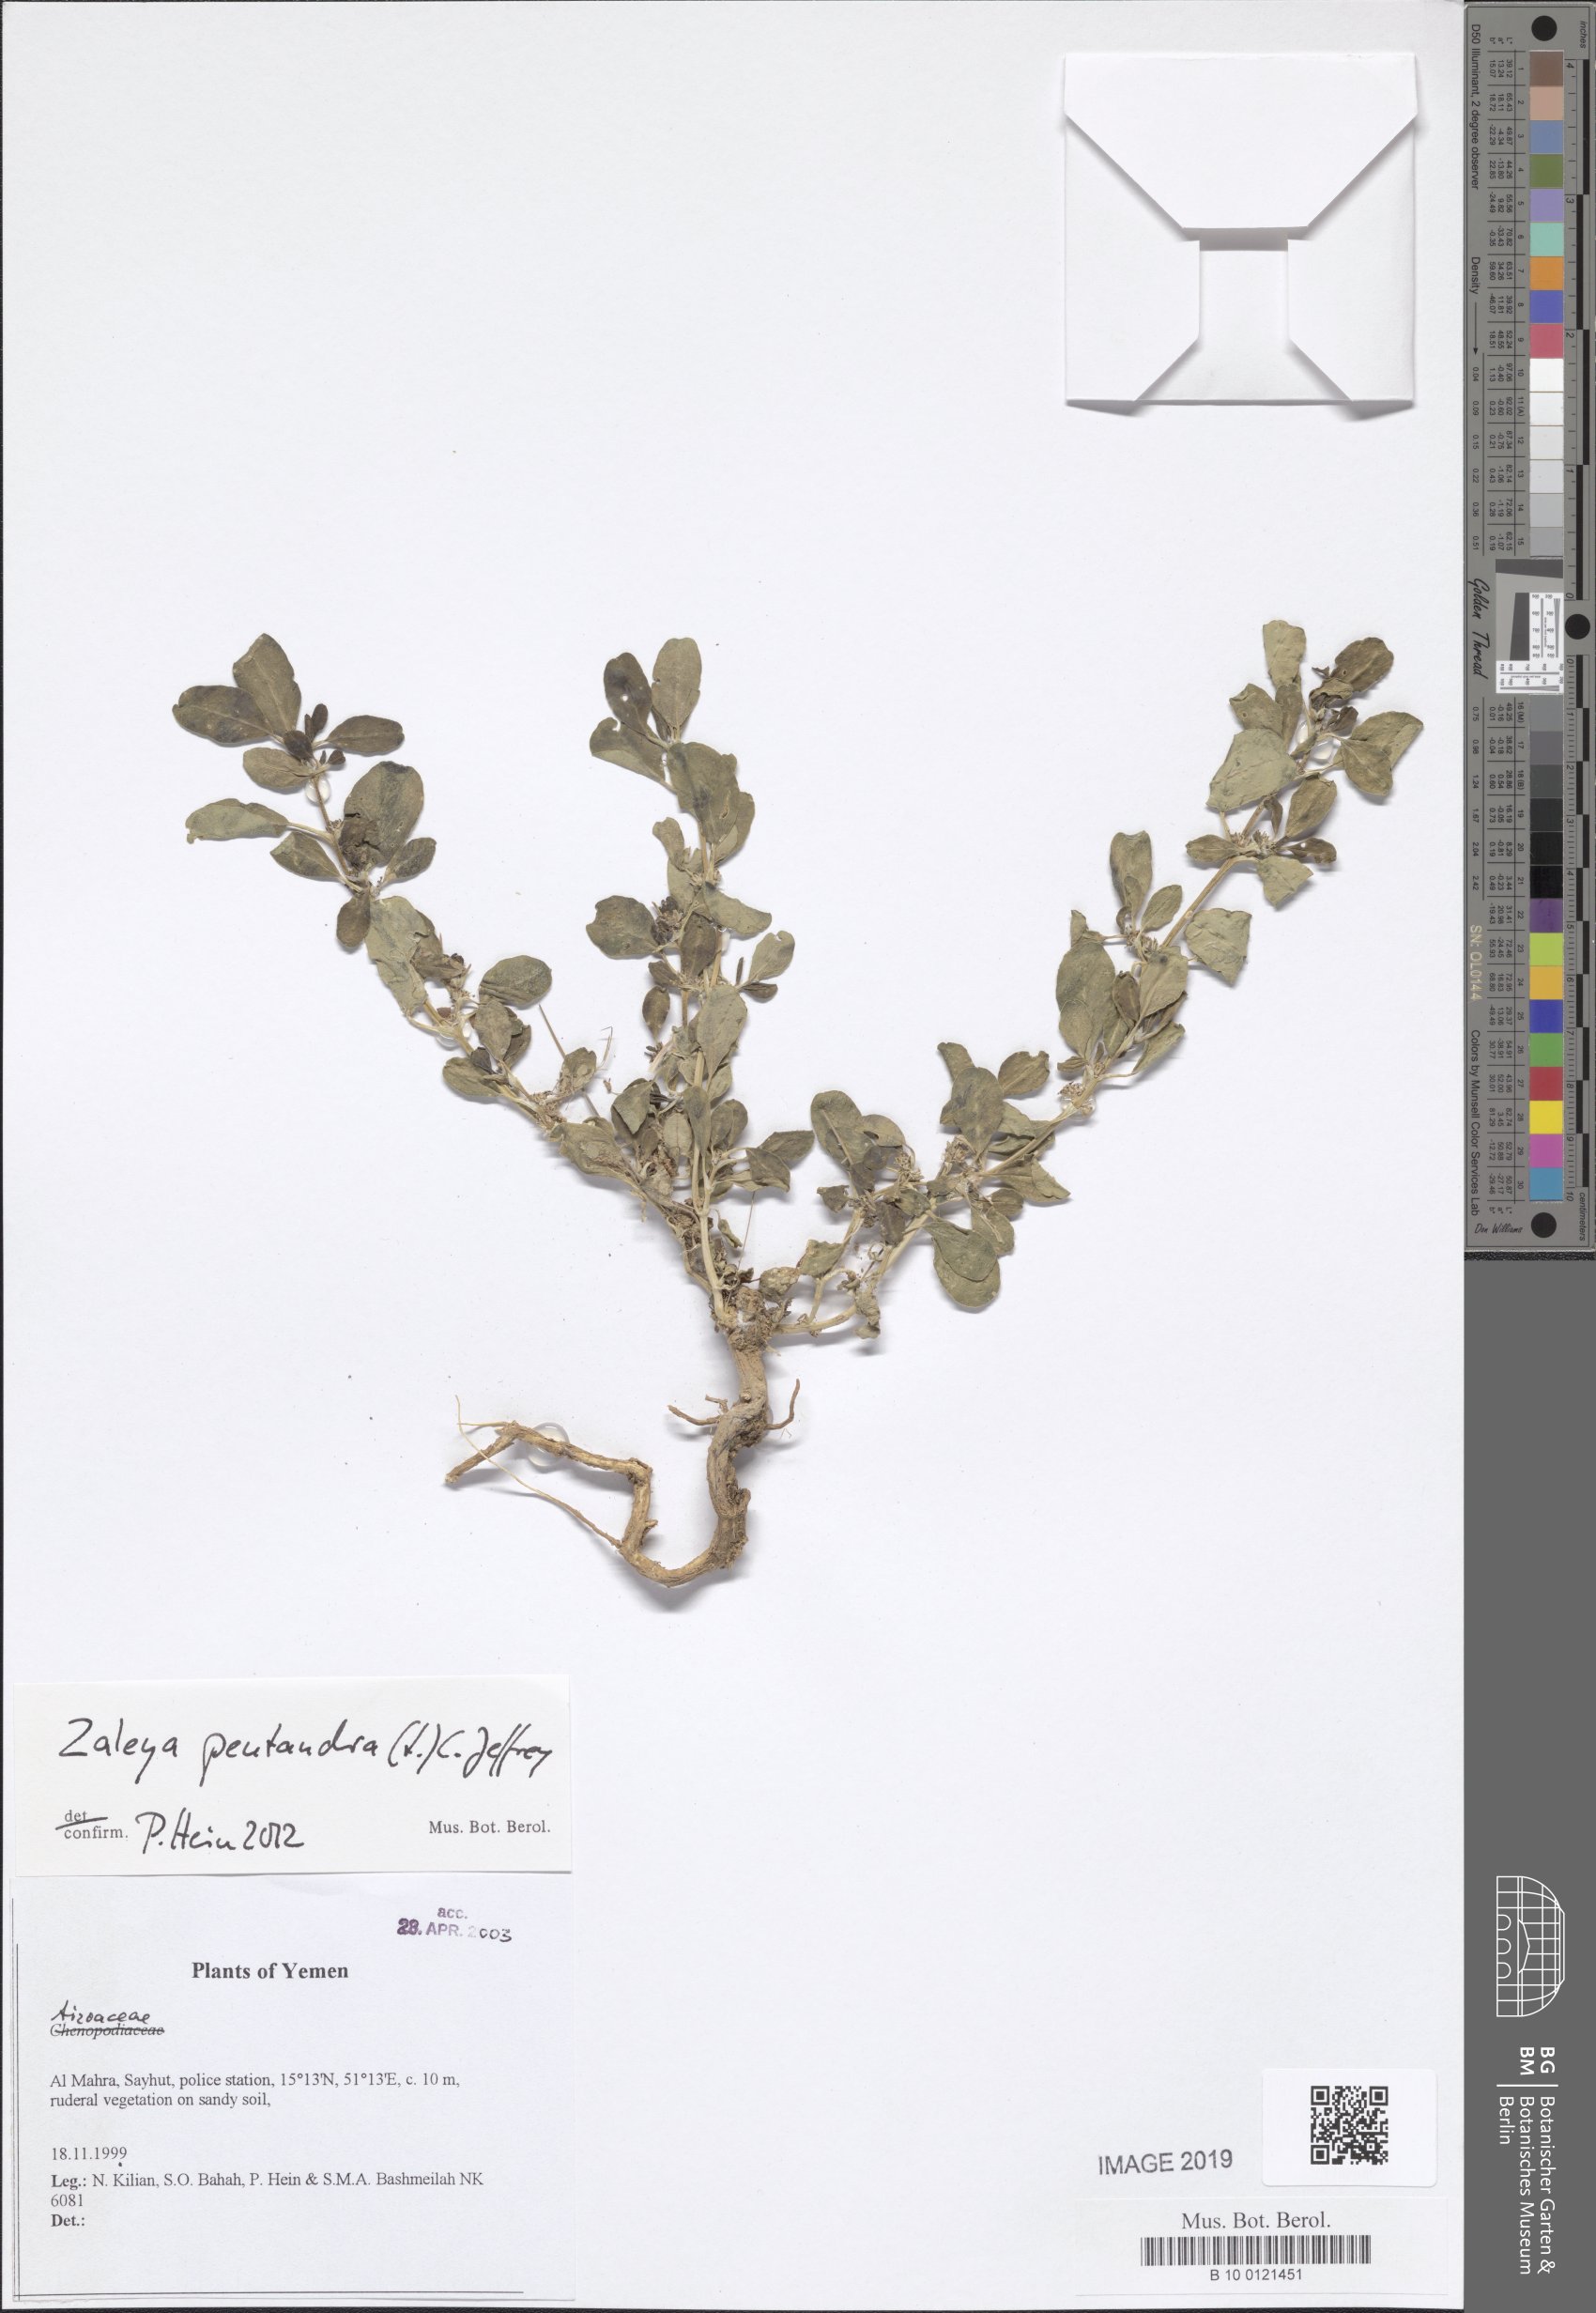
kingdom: Plantae
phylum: Tracheophyta
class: Magnoliopsida
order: Caryophyllales
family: Aizoaceae
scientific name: Aizoaceae
